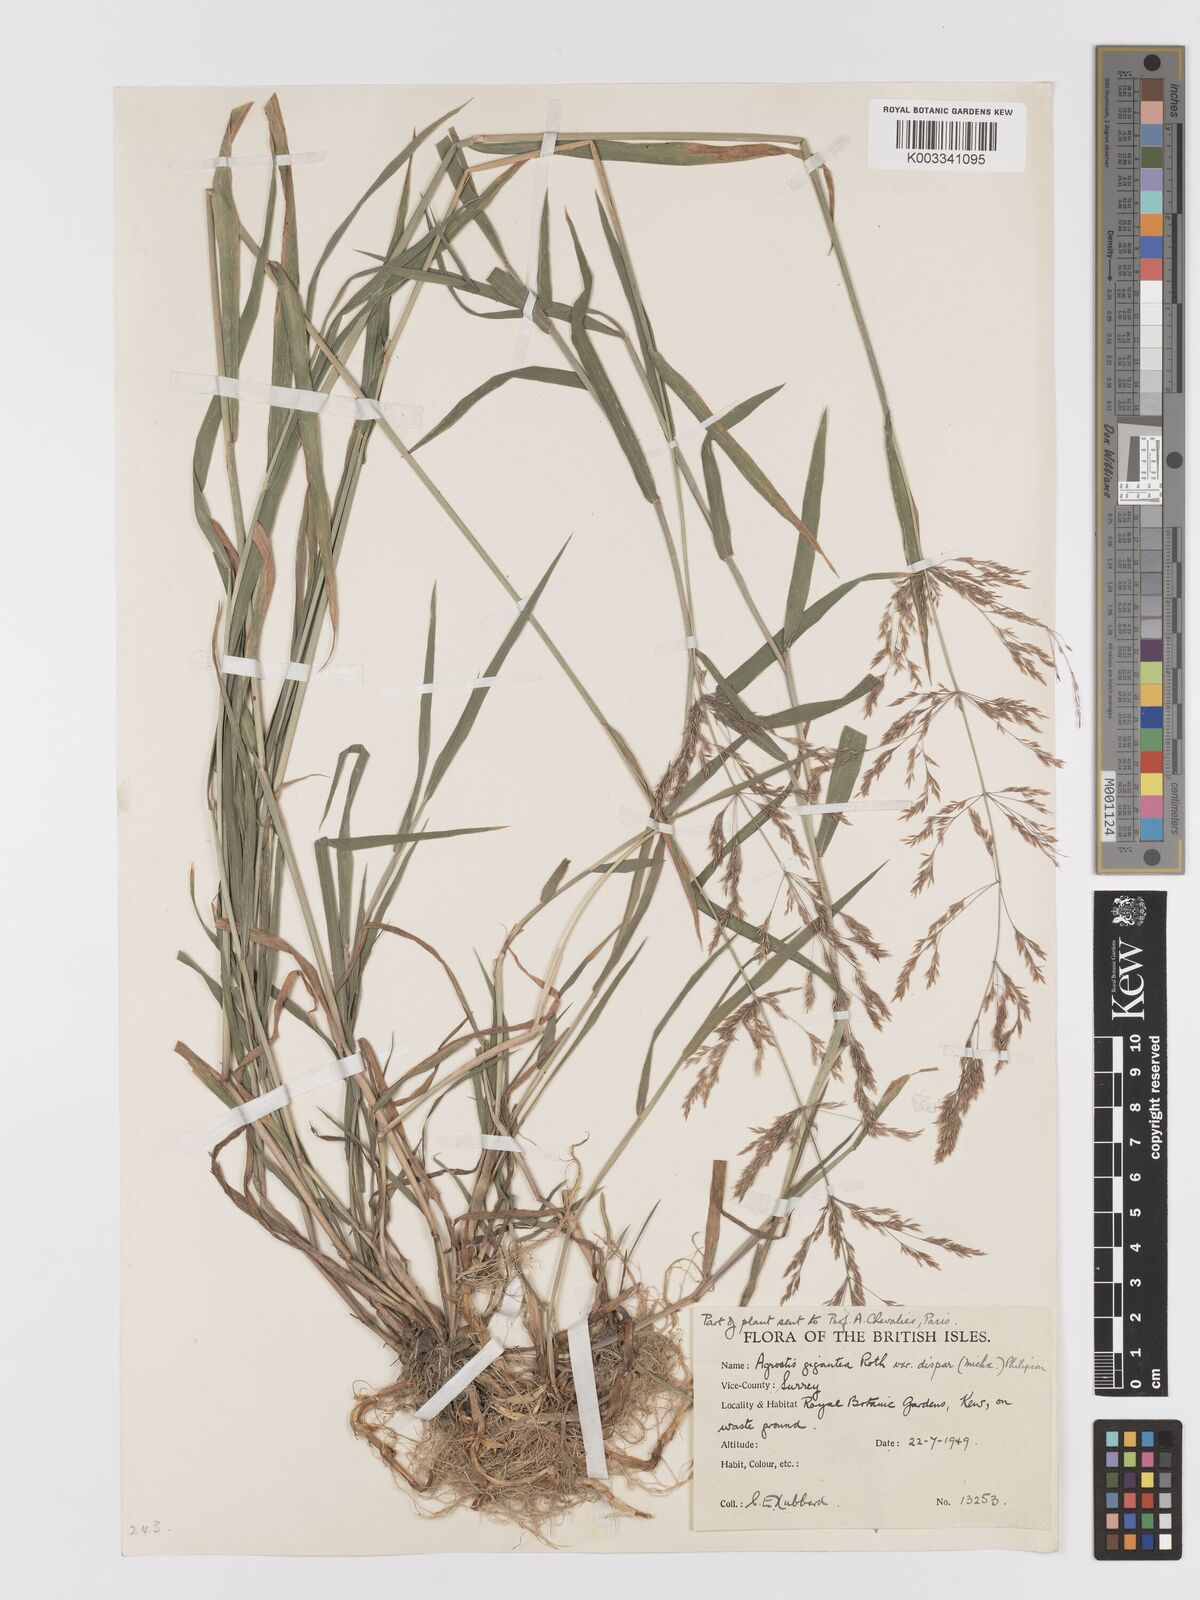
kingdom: Plantae
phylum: Tracheophyta
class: Liliopsida
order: Poales
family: Poaceae
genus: Agrostis
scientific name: Agrostis gigantea
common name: Black bent
